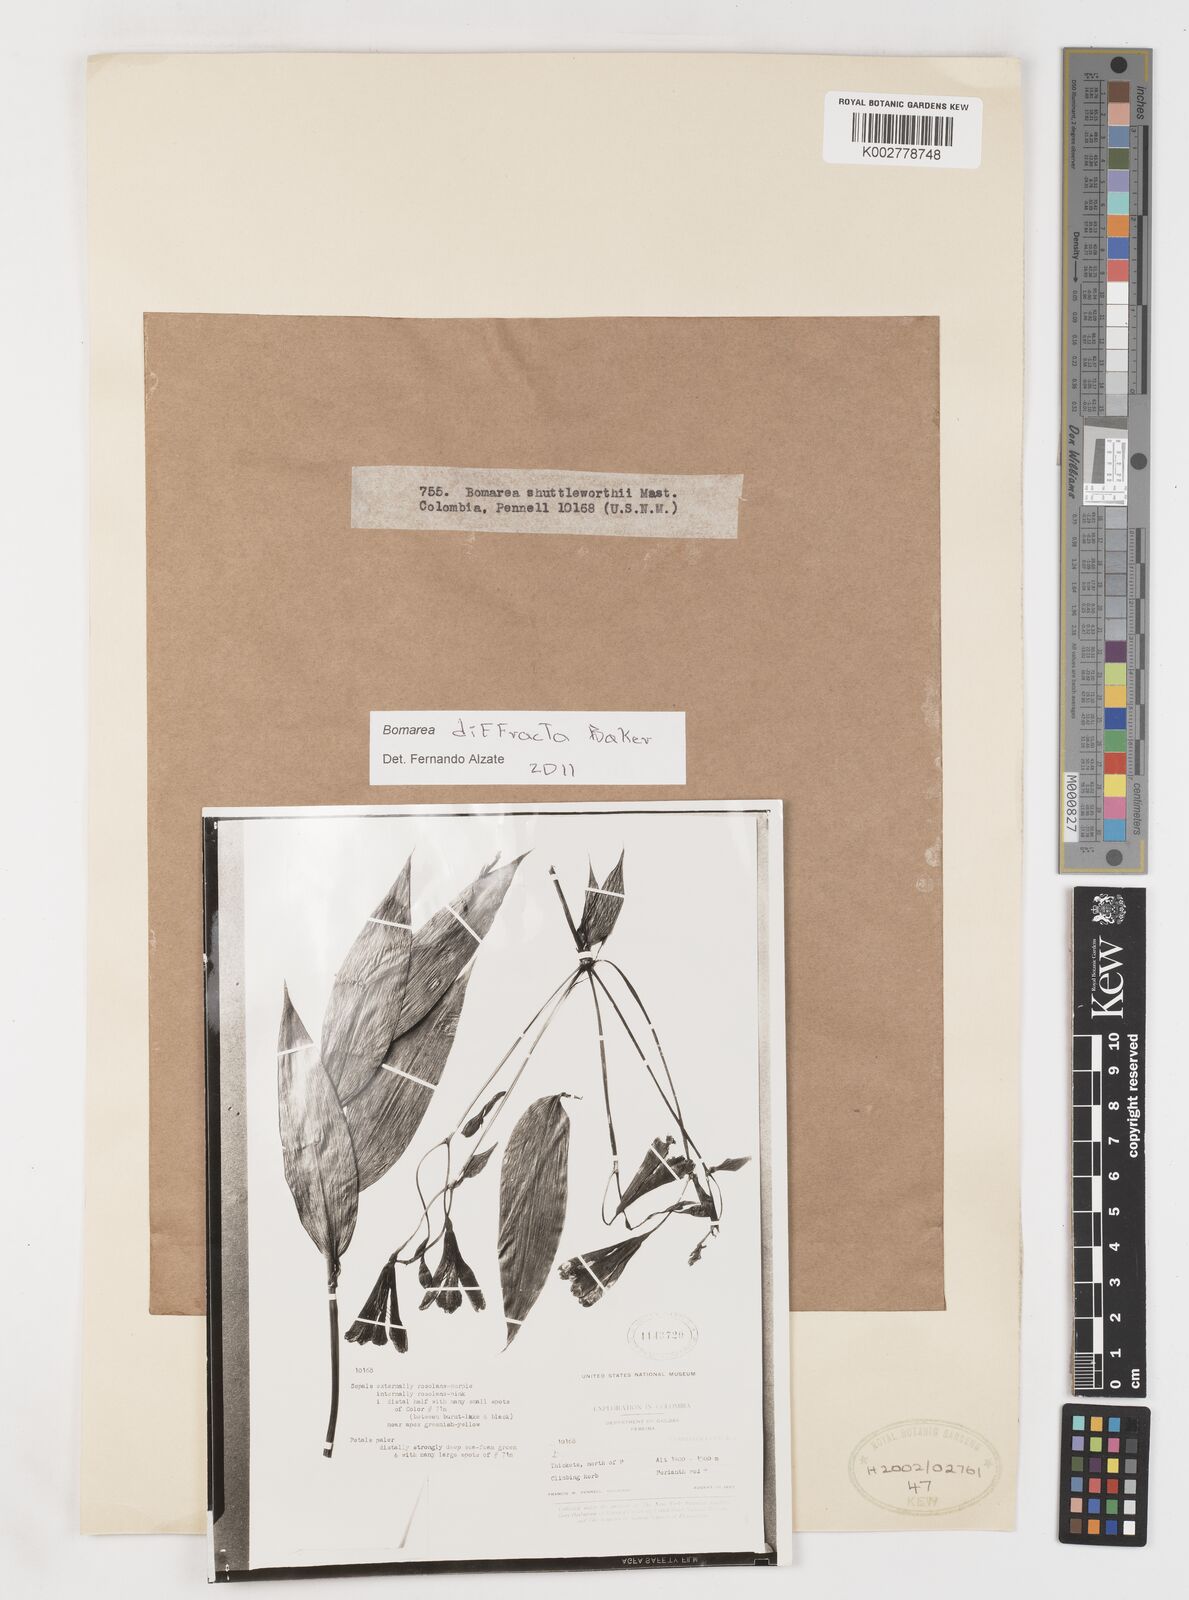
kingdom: Plantae
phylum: Tracheophyta
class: Liliopsida
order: Liliales
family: Alstroemeriaceae
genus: Bomarea
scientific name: Bomarea shuttleworthii
